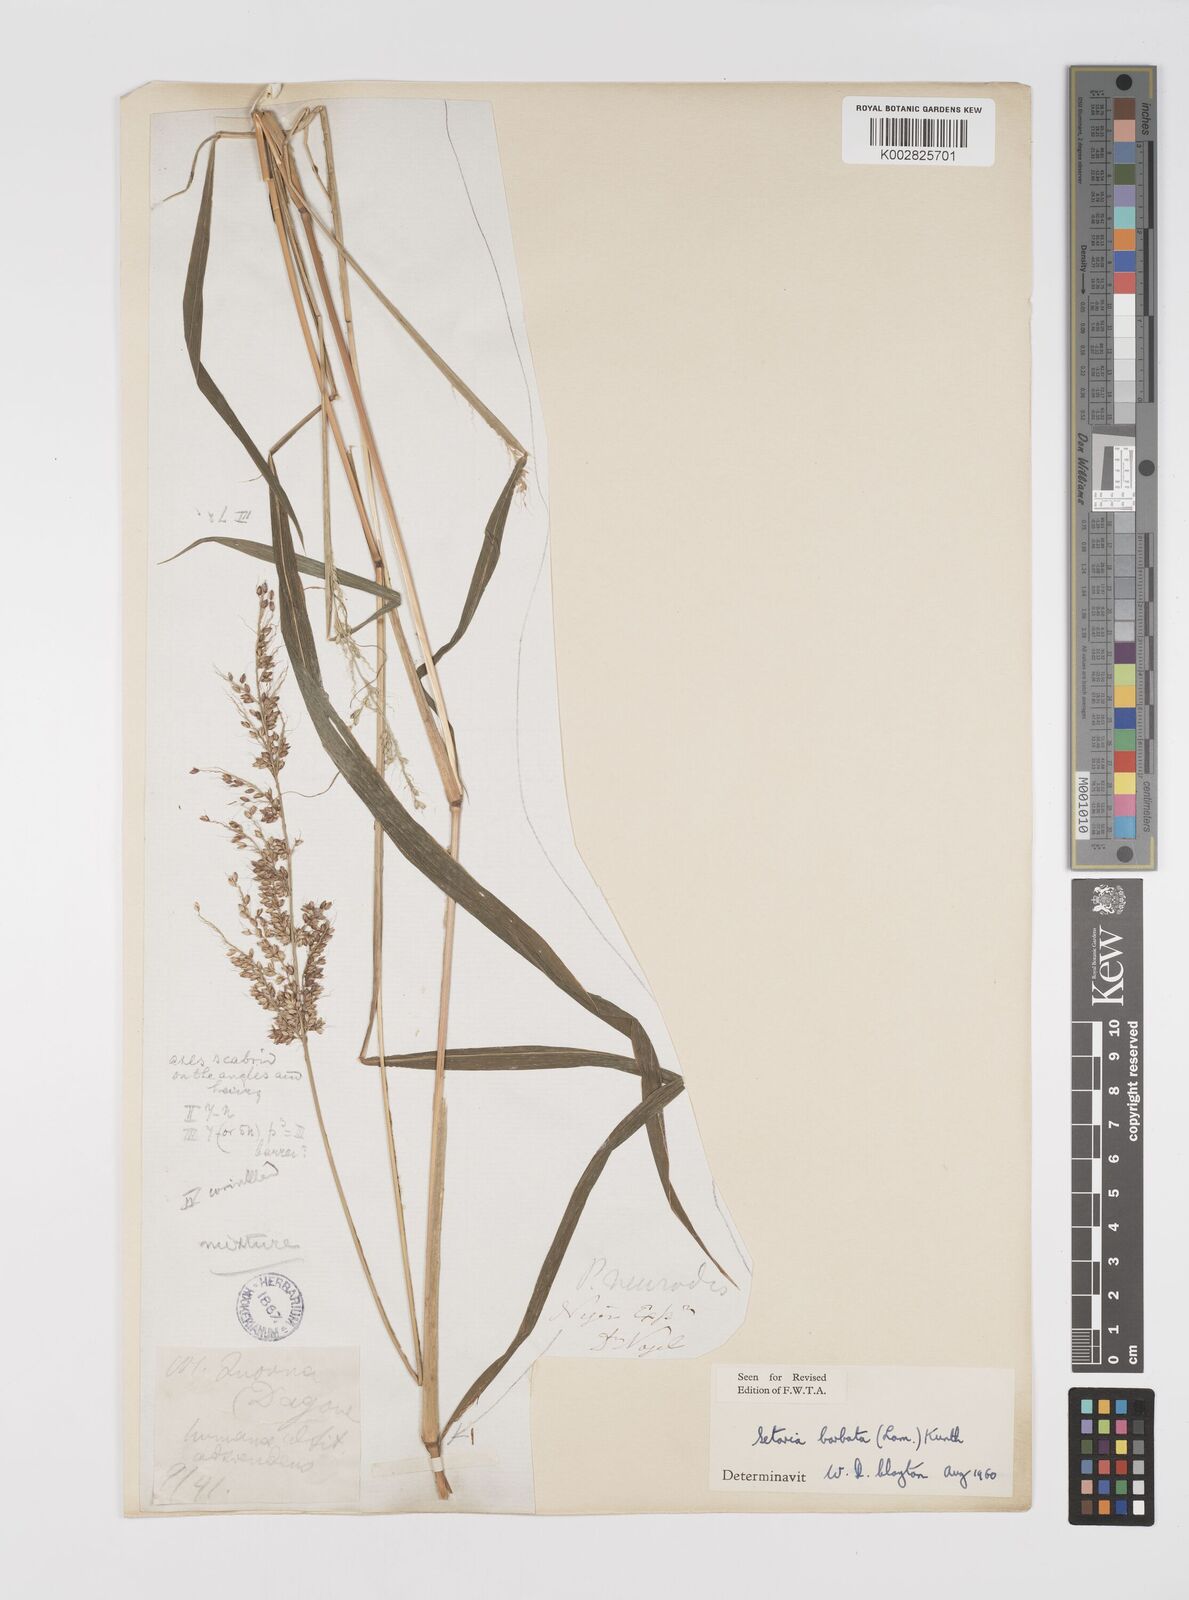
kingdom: Plantae
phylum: Tracheophyta
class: Liliopsida
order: Poales
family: Poaceae
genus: Setaria
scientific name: Setaria barbata
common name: East indian bristlegrass
